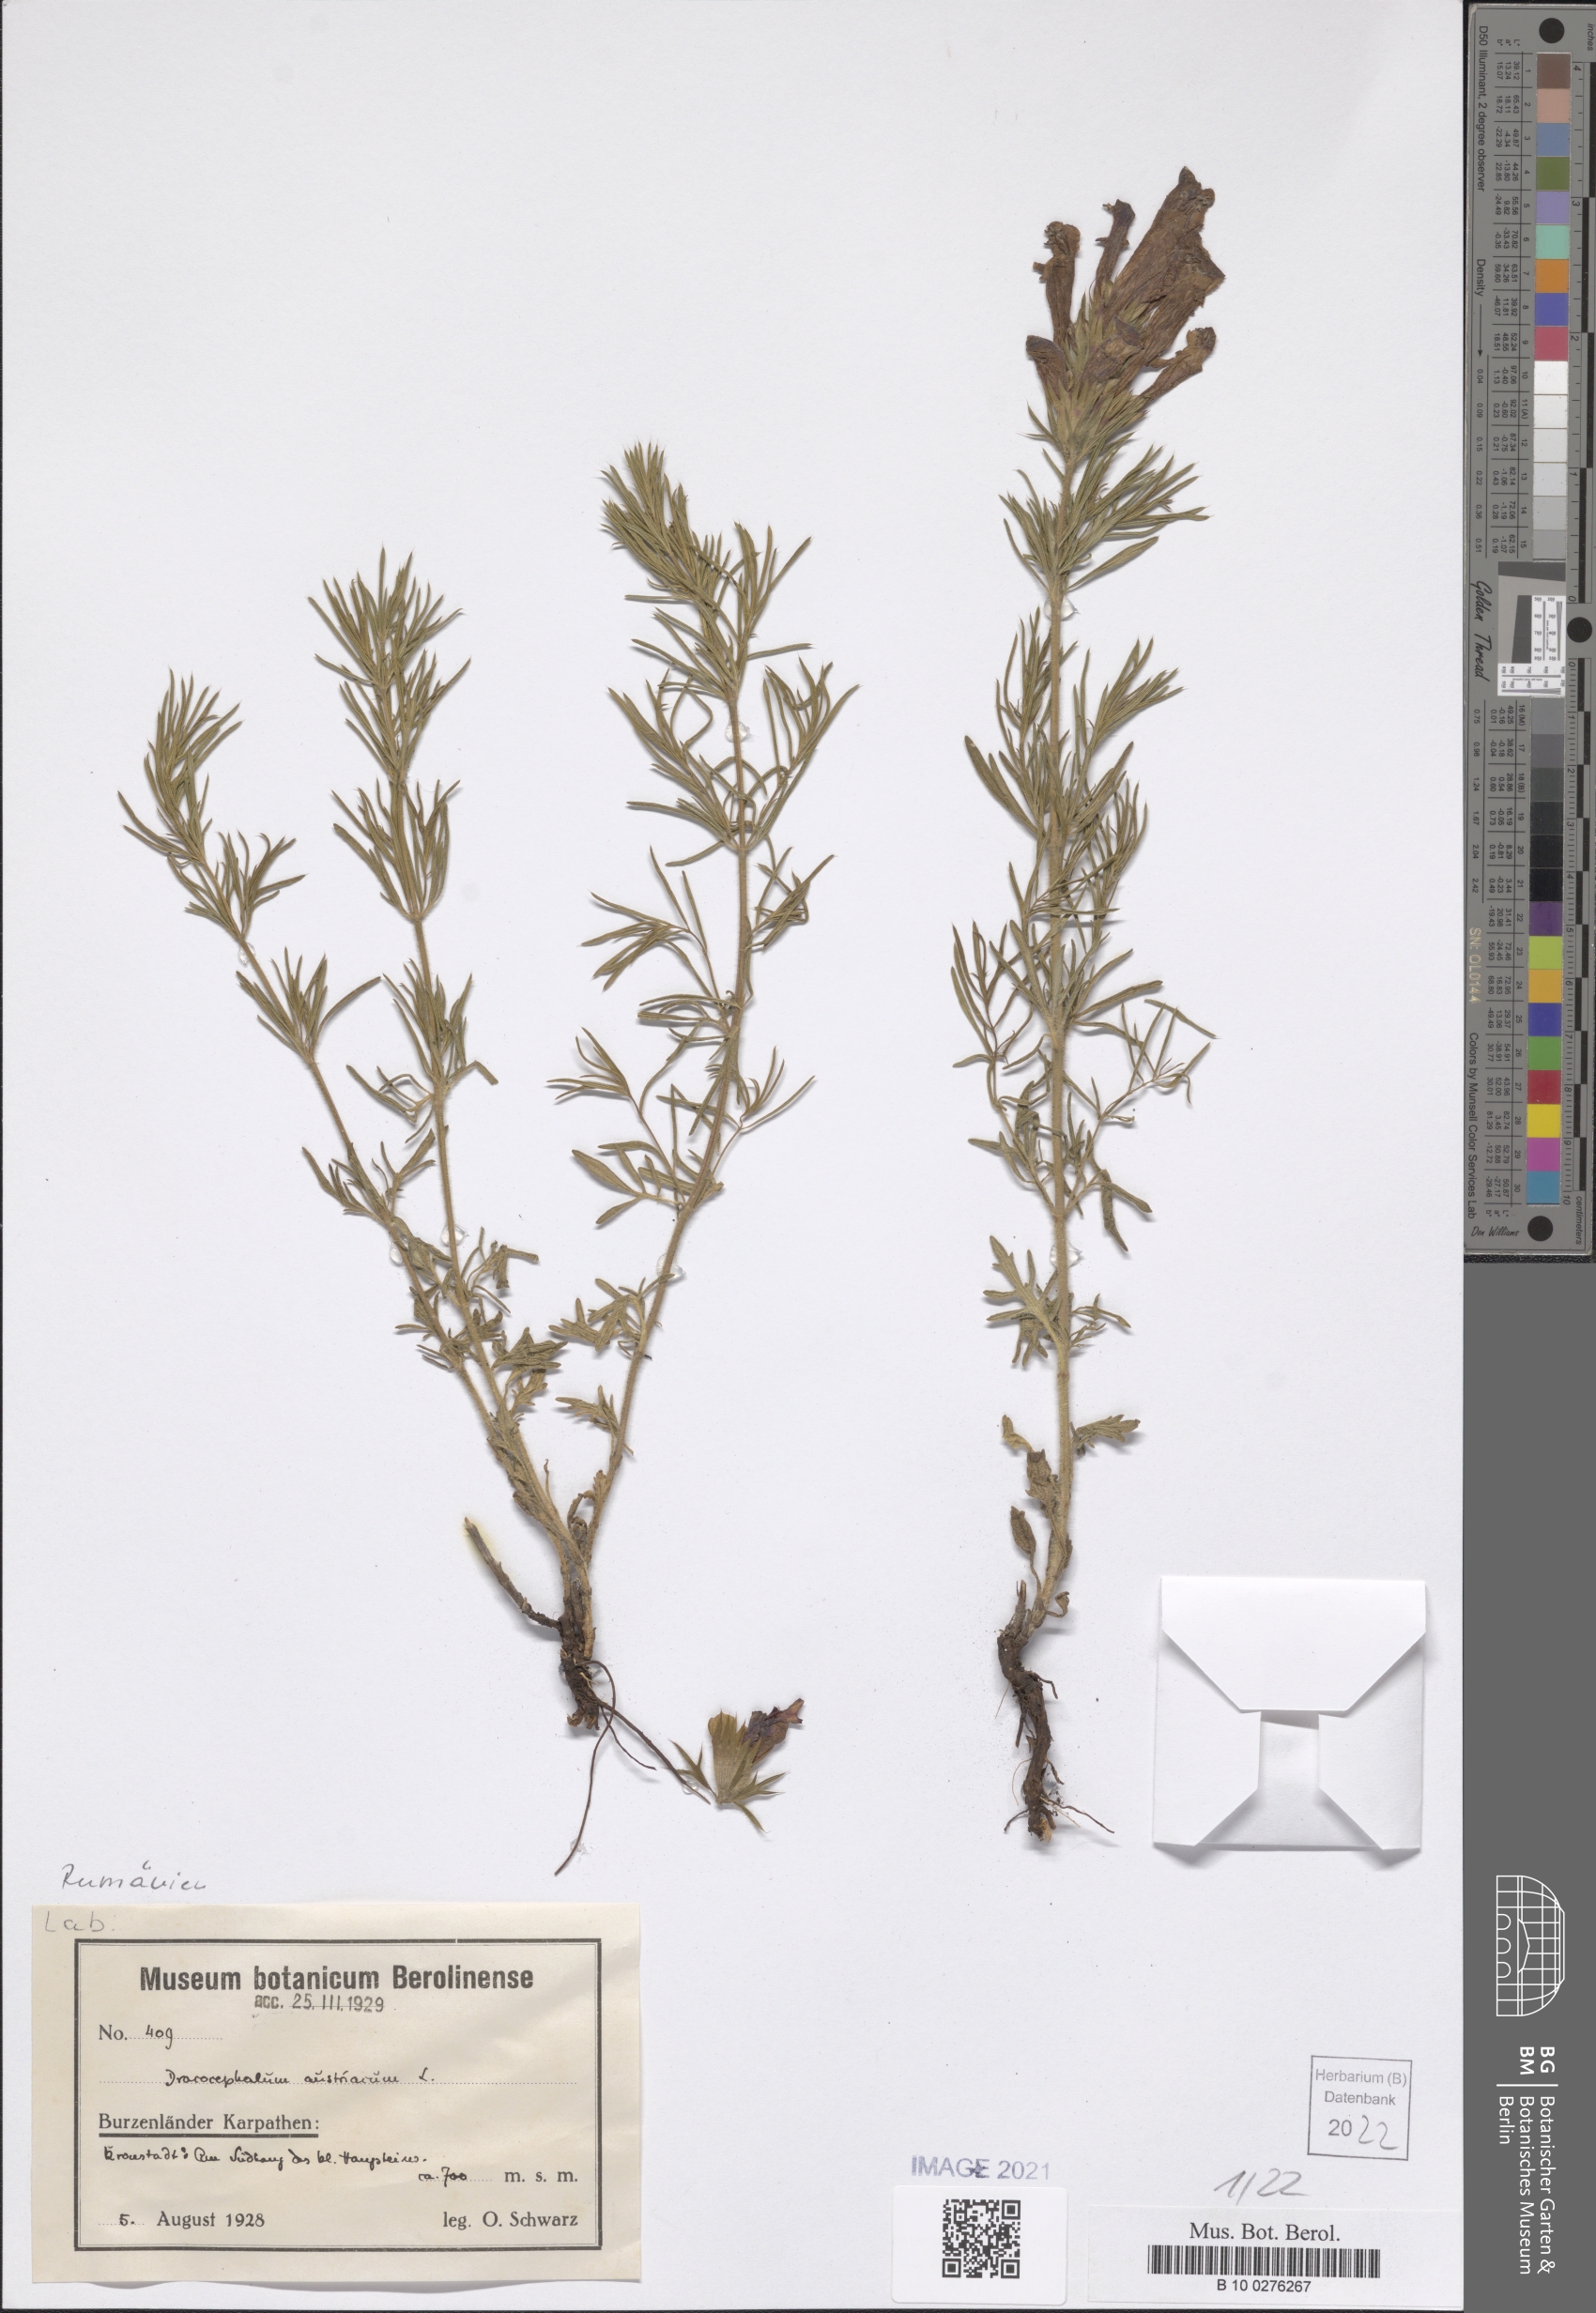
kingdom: Plantae
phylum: Tracheophyta
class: Magnoliopsida
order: Lamiales
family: Lamiaceae
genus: Dracocephalum
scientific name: Dracocephalum austriacum
